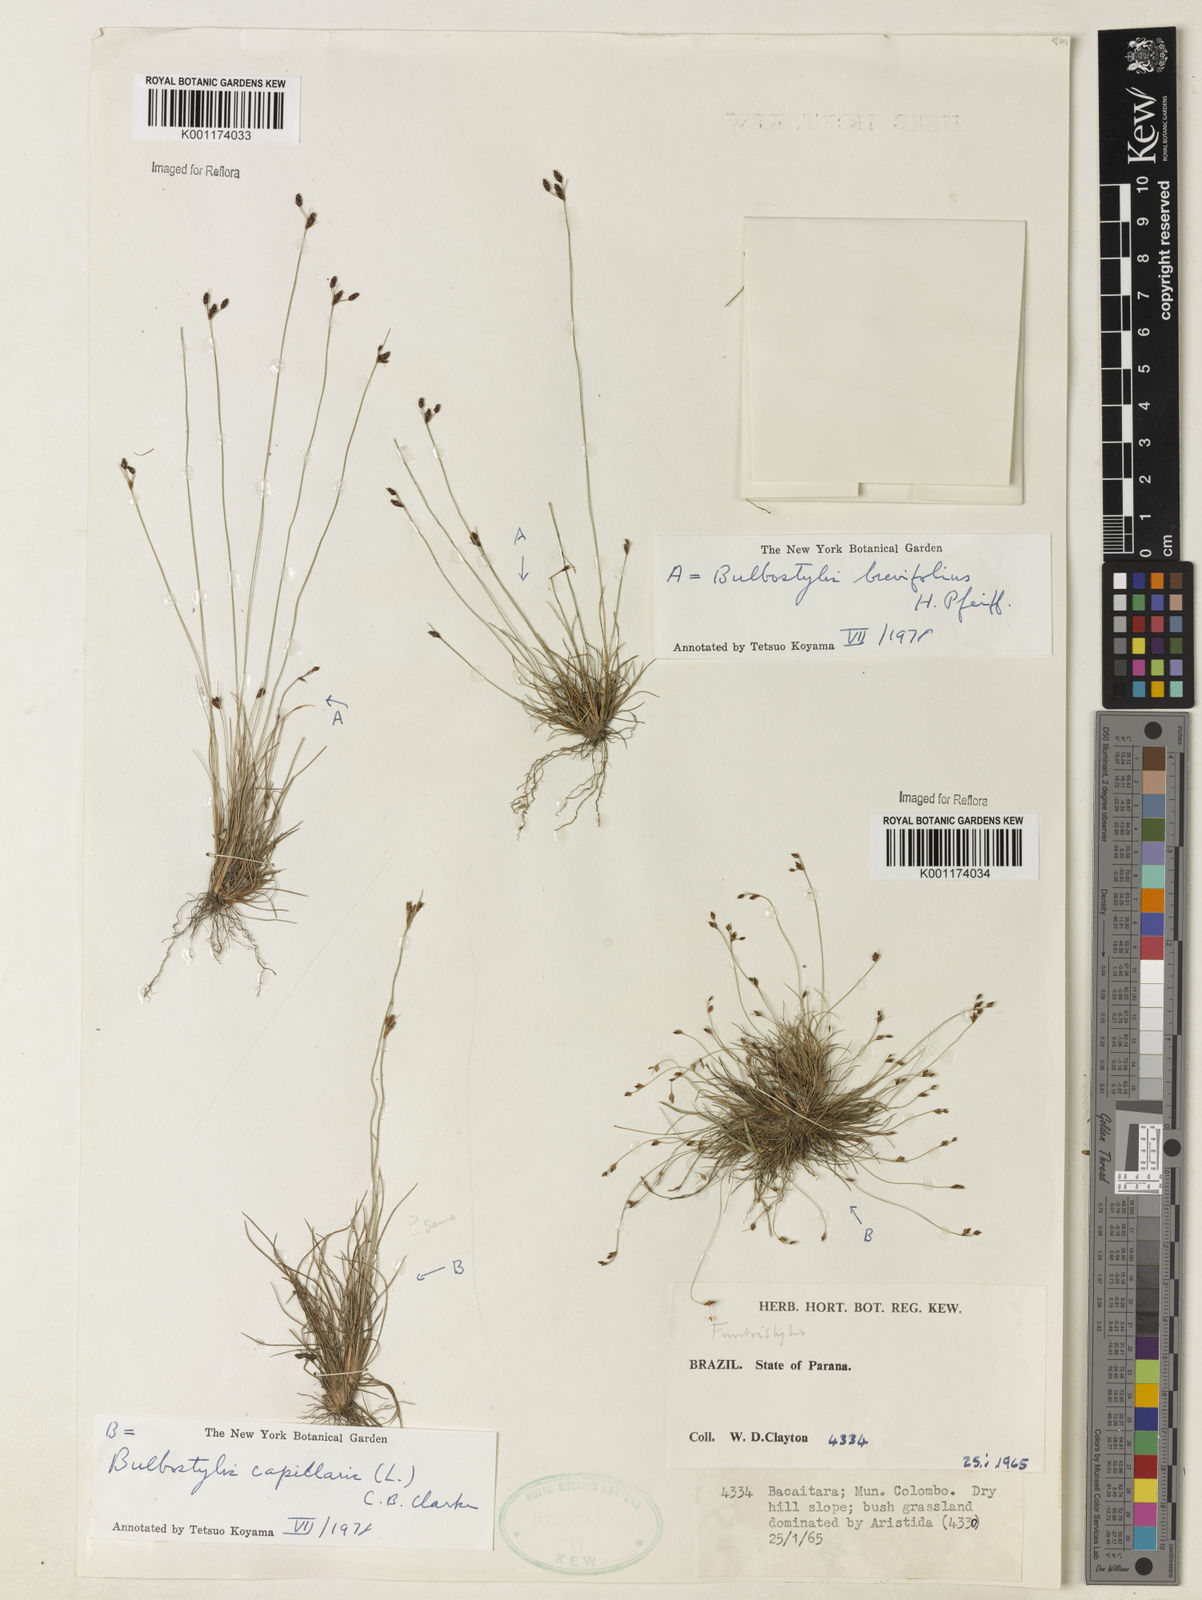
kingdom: Plantae
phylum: Tracheophyta
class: Liliopsida
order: Poales
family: Cyperaceae
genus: Bulbostylis
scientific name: Bulbostylis brevifolia
